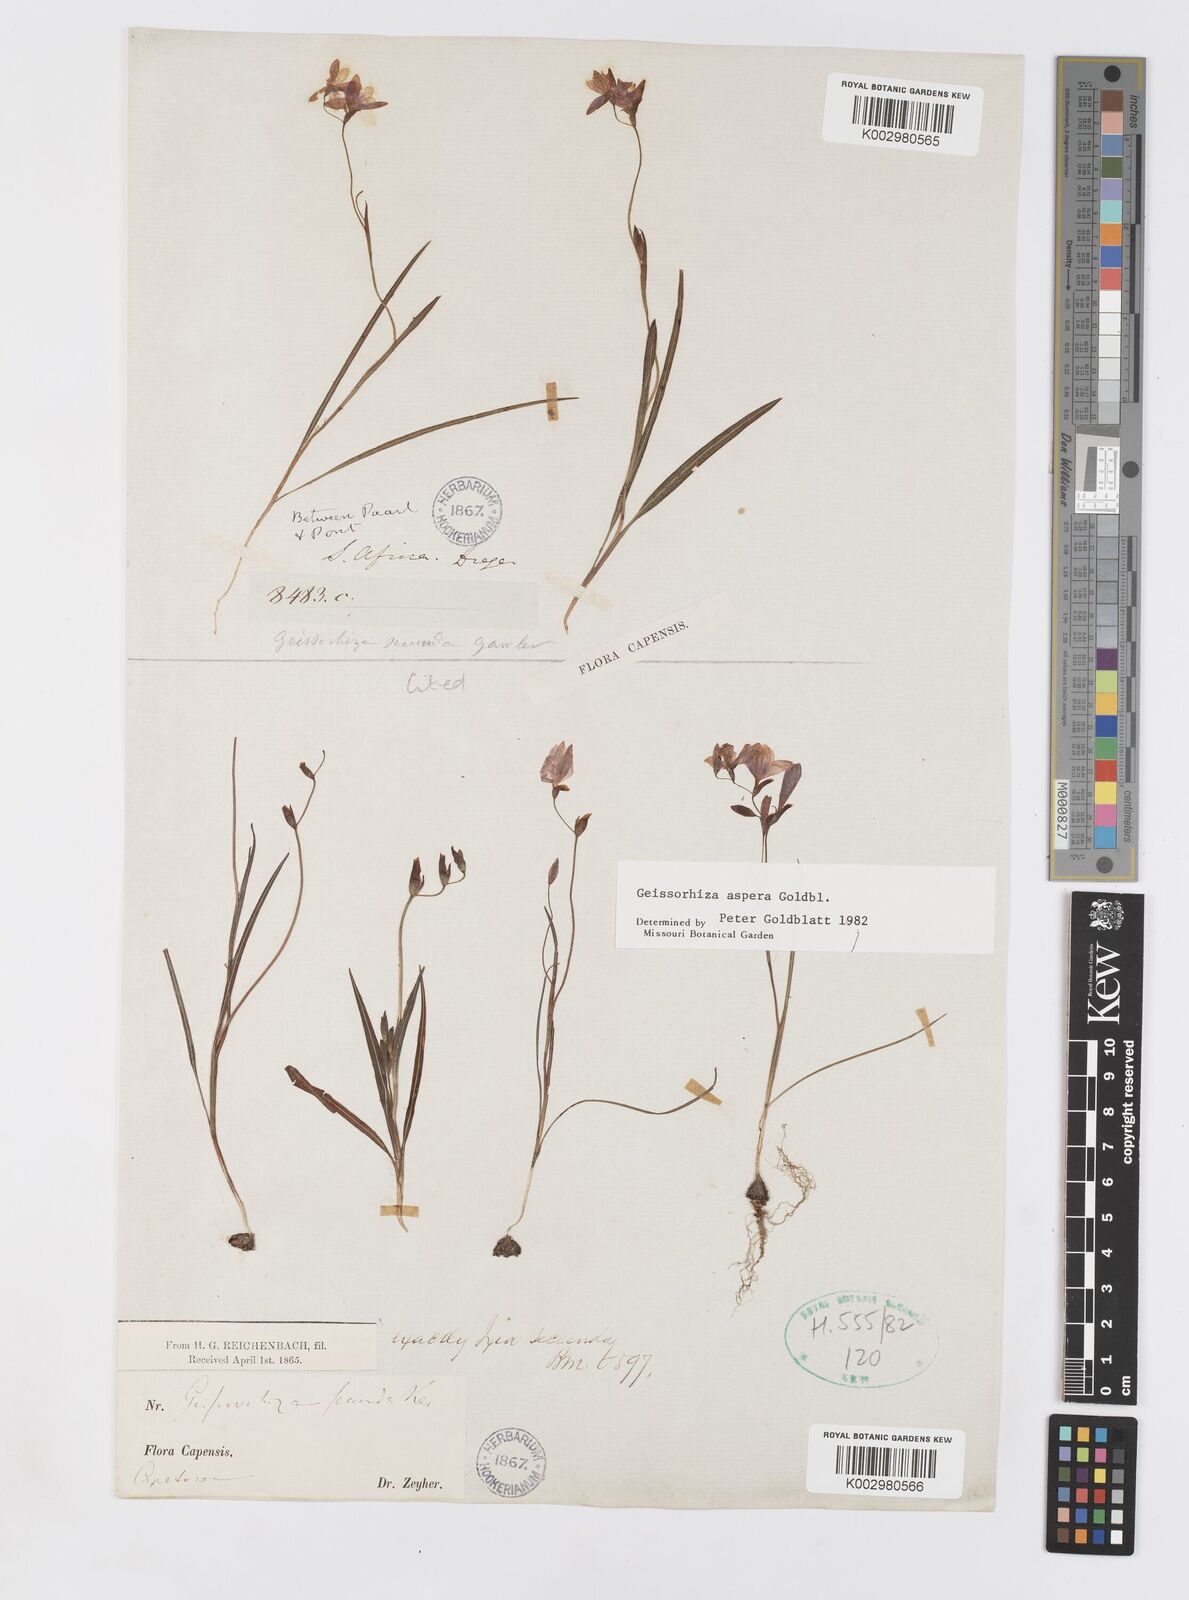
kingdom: Plantae
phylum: Tracheophyta
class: Liliopsida
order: Asparagales
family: Iridaceae
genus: Geissorhiza
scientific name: Geissorhiza aspera
